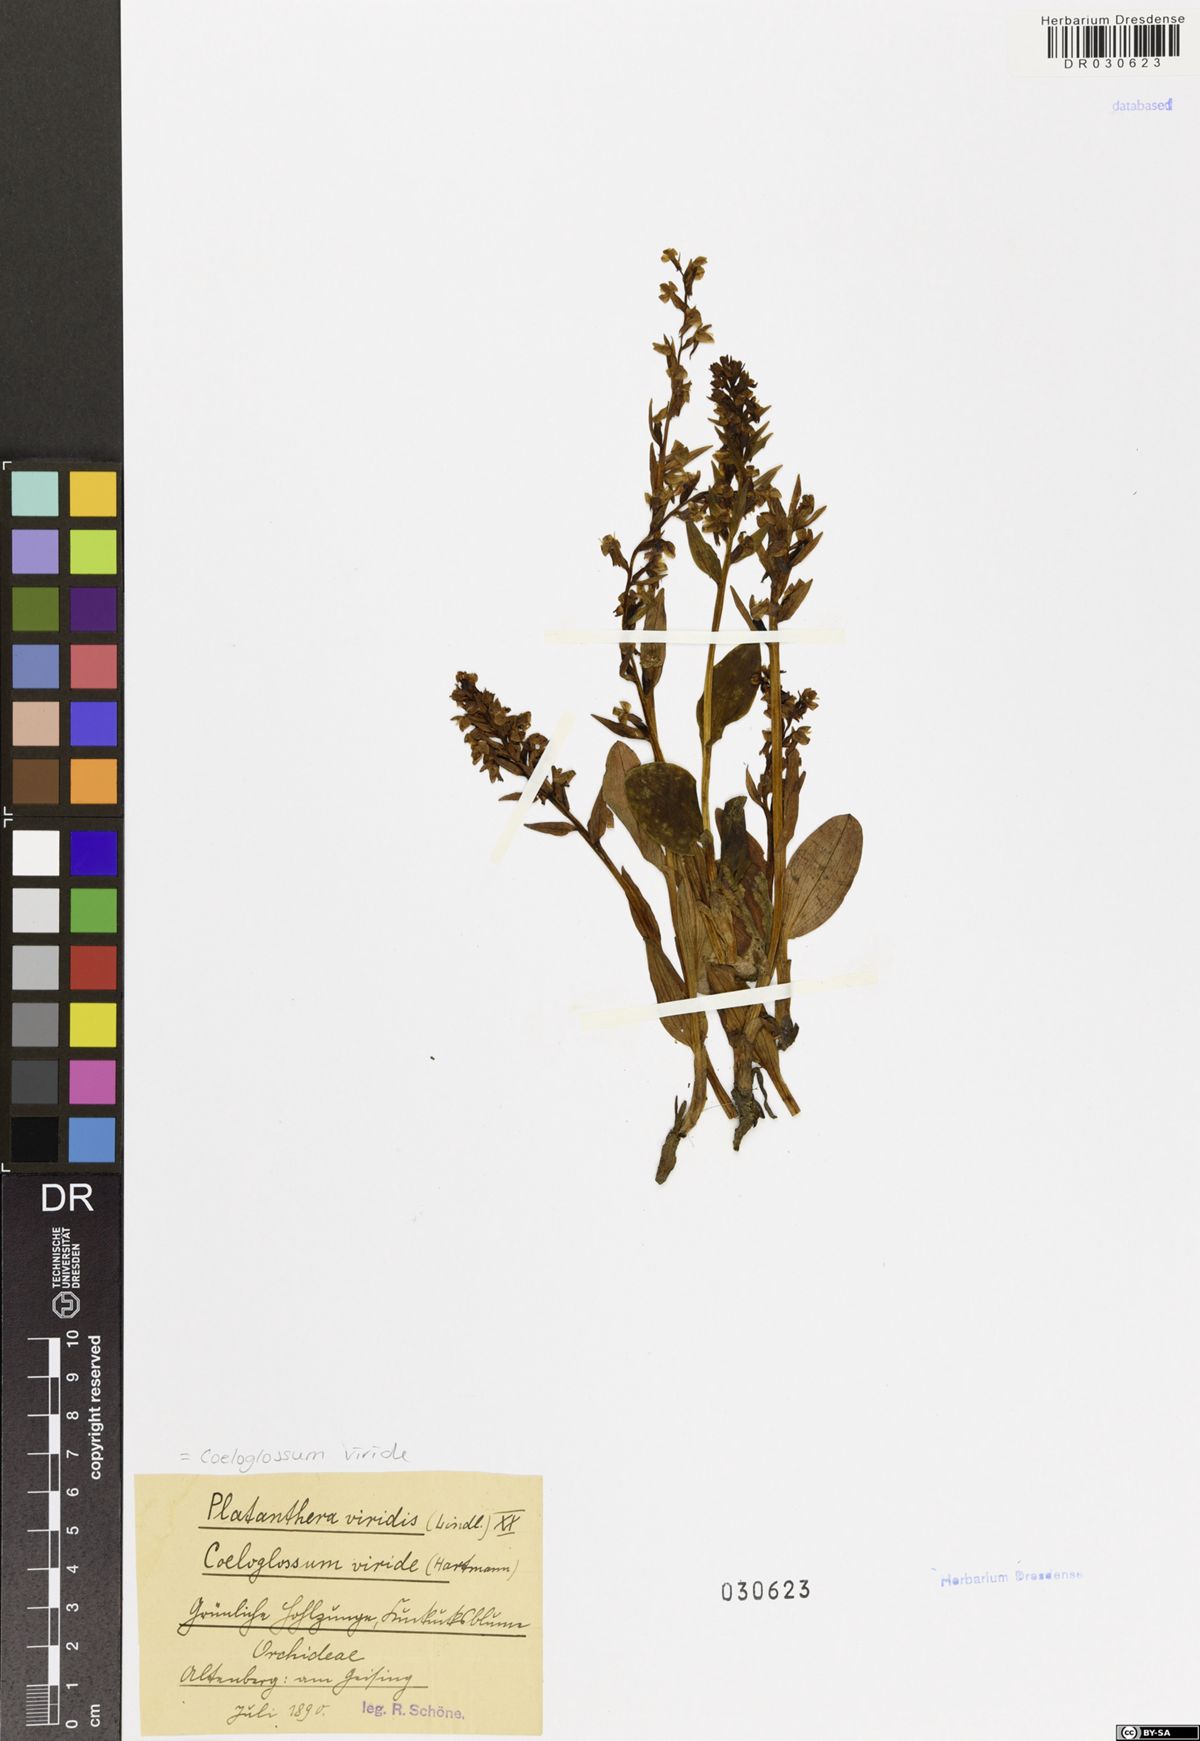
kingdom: Plantae
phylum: Tracheophyta
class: Liliopsida
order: Asparagales
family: Orchidaceae
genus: Dactylorhiza
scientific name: Dactylorhiza viridis
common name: Longbract frog orchid
